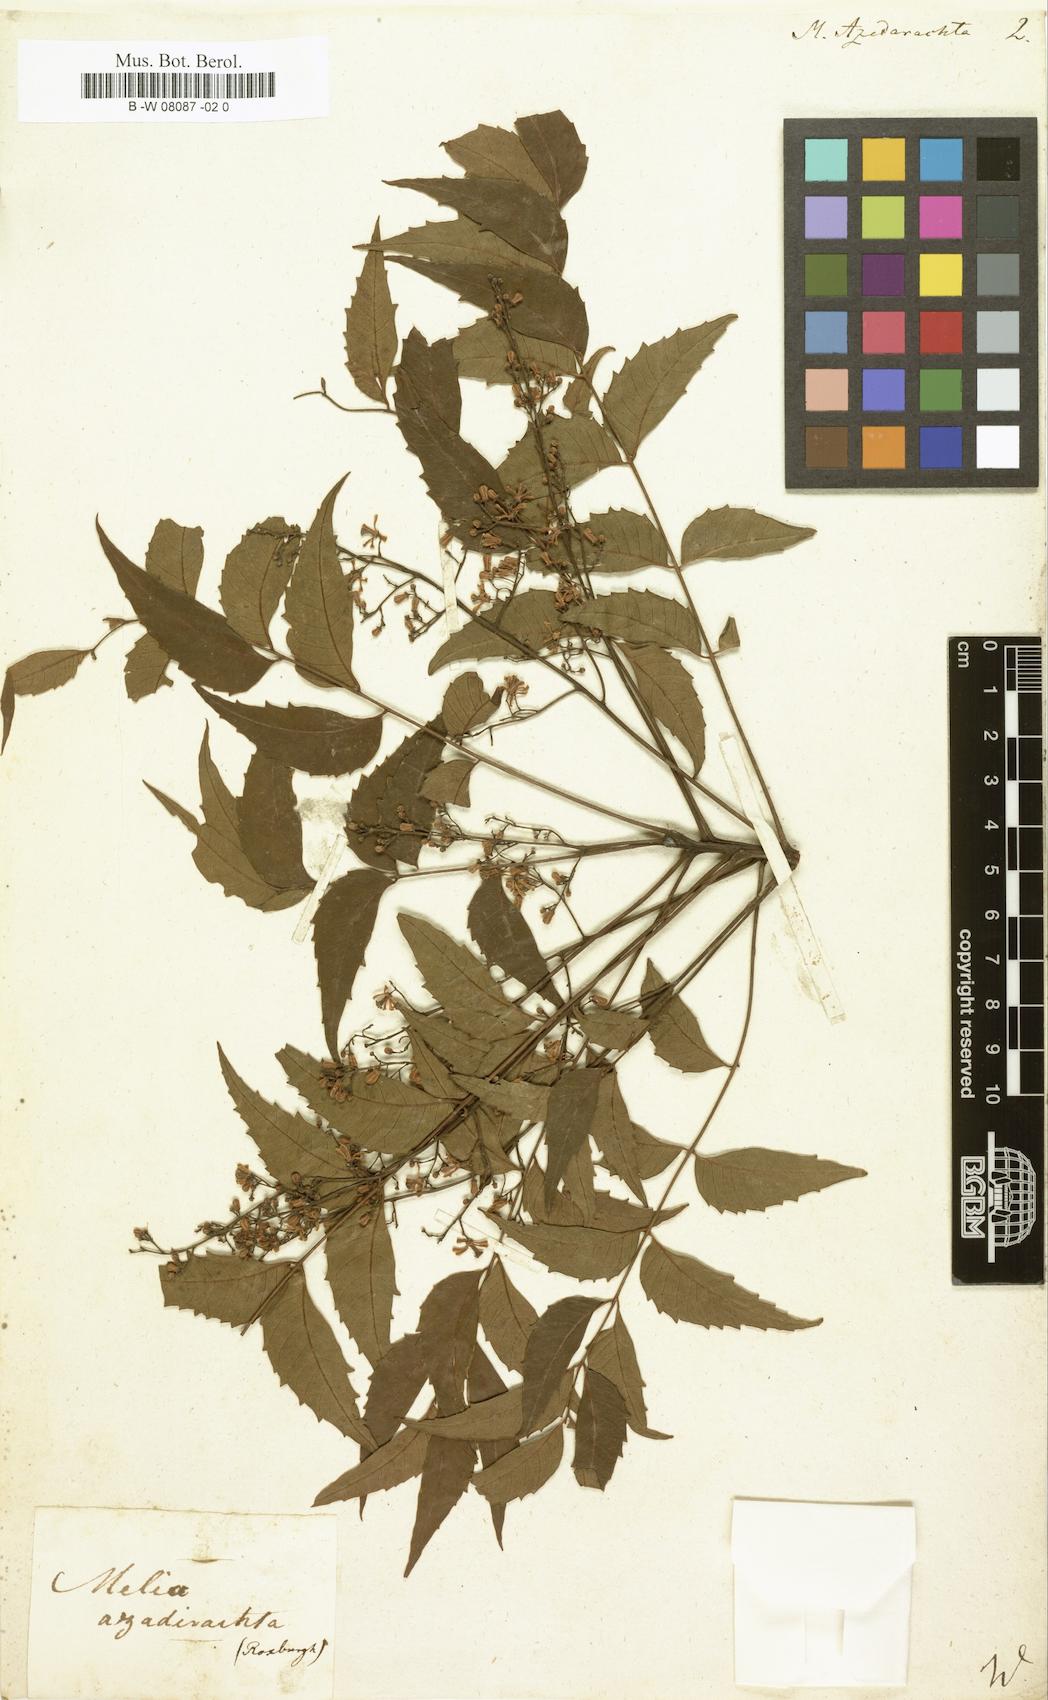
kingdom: Plantae
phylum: Tracheophyta
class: Magnoliopsida
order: Sapindales
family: Meliaceae
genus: Azadirachta
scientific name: Azadirachta indica
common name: Neem
